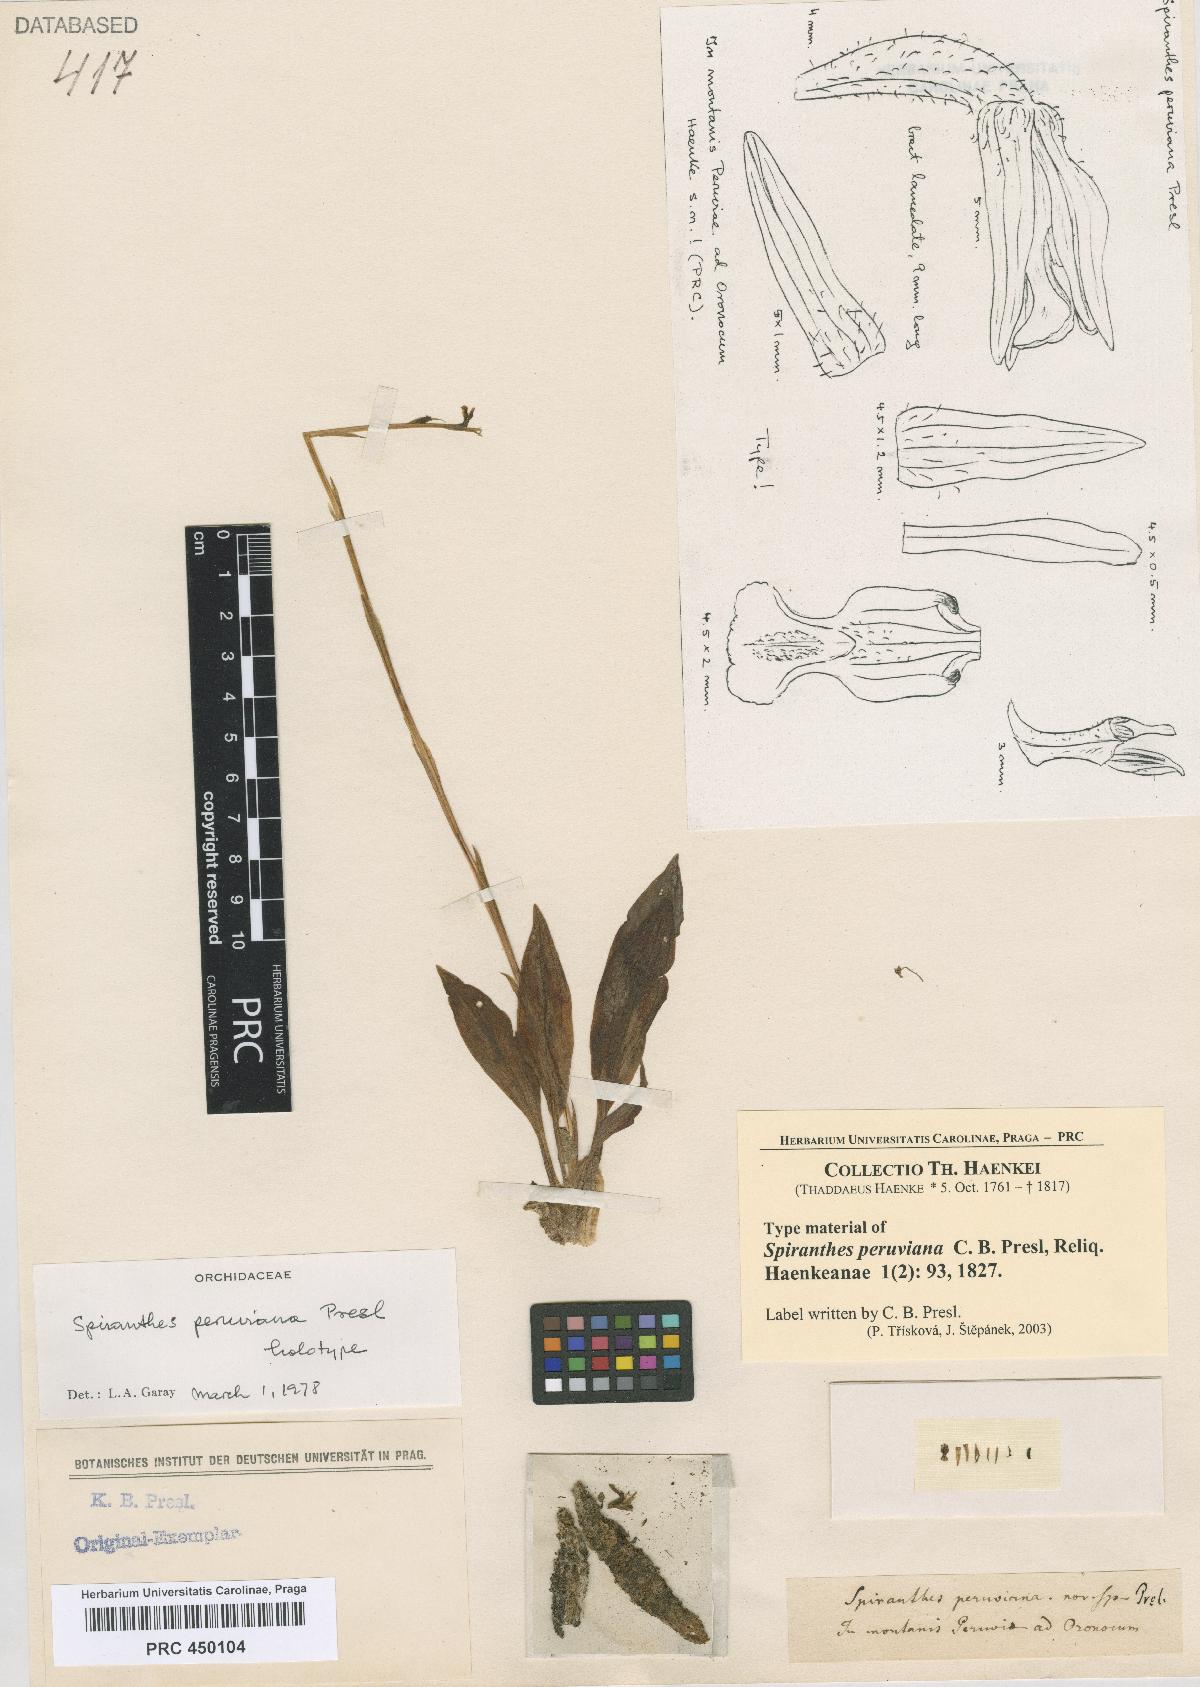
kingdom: Plantae
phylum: Tracheophyta
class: Liliopsida
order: Asparagales
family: Orchidaceae
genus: Cyclopogon
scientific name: Cyclopogon peruvianus
